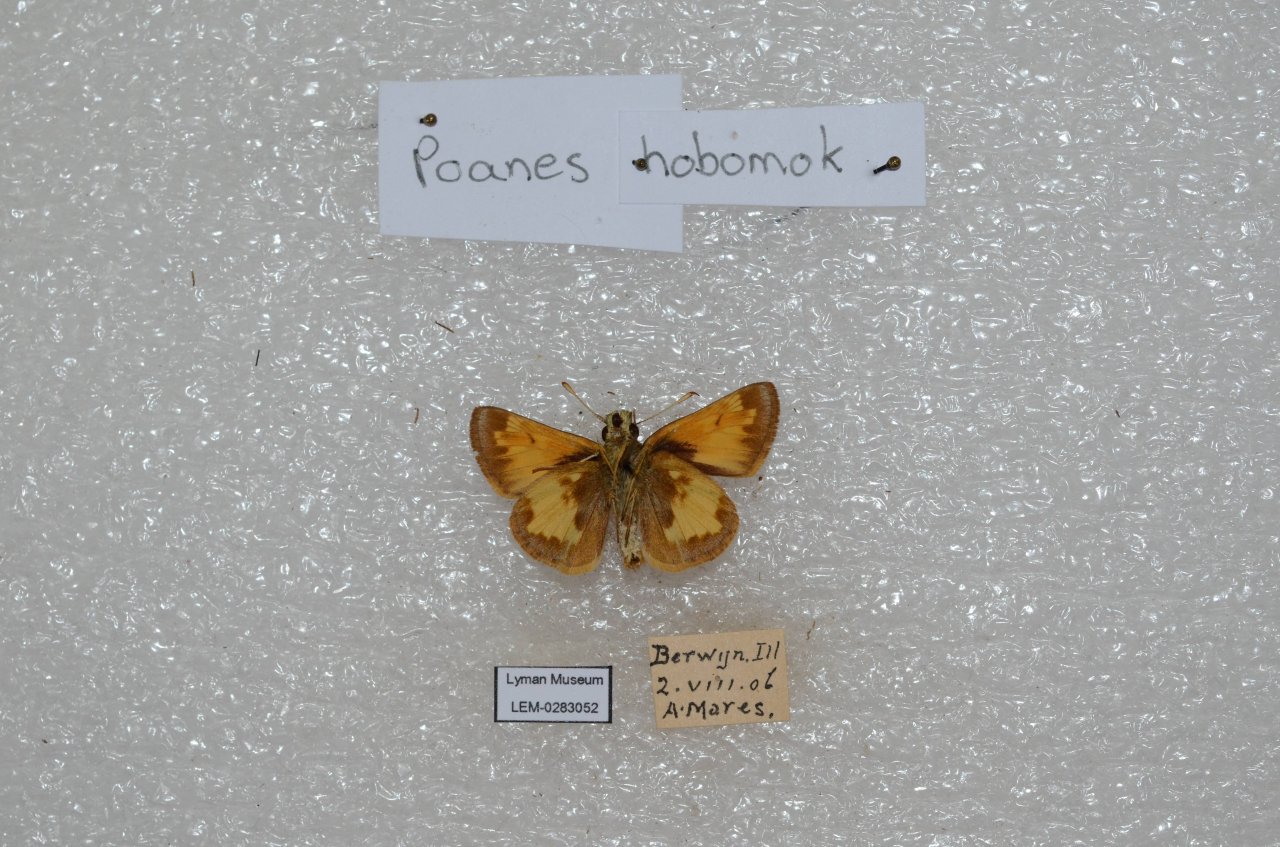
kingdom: Animalia
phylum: Arthropoda
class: Insecta
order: Lepidoptera
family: Hesperiidae
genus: Lon
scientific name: Lon hobomok
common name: Hobomok Skipper
